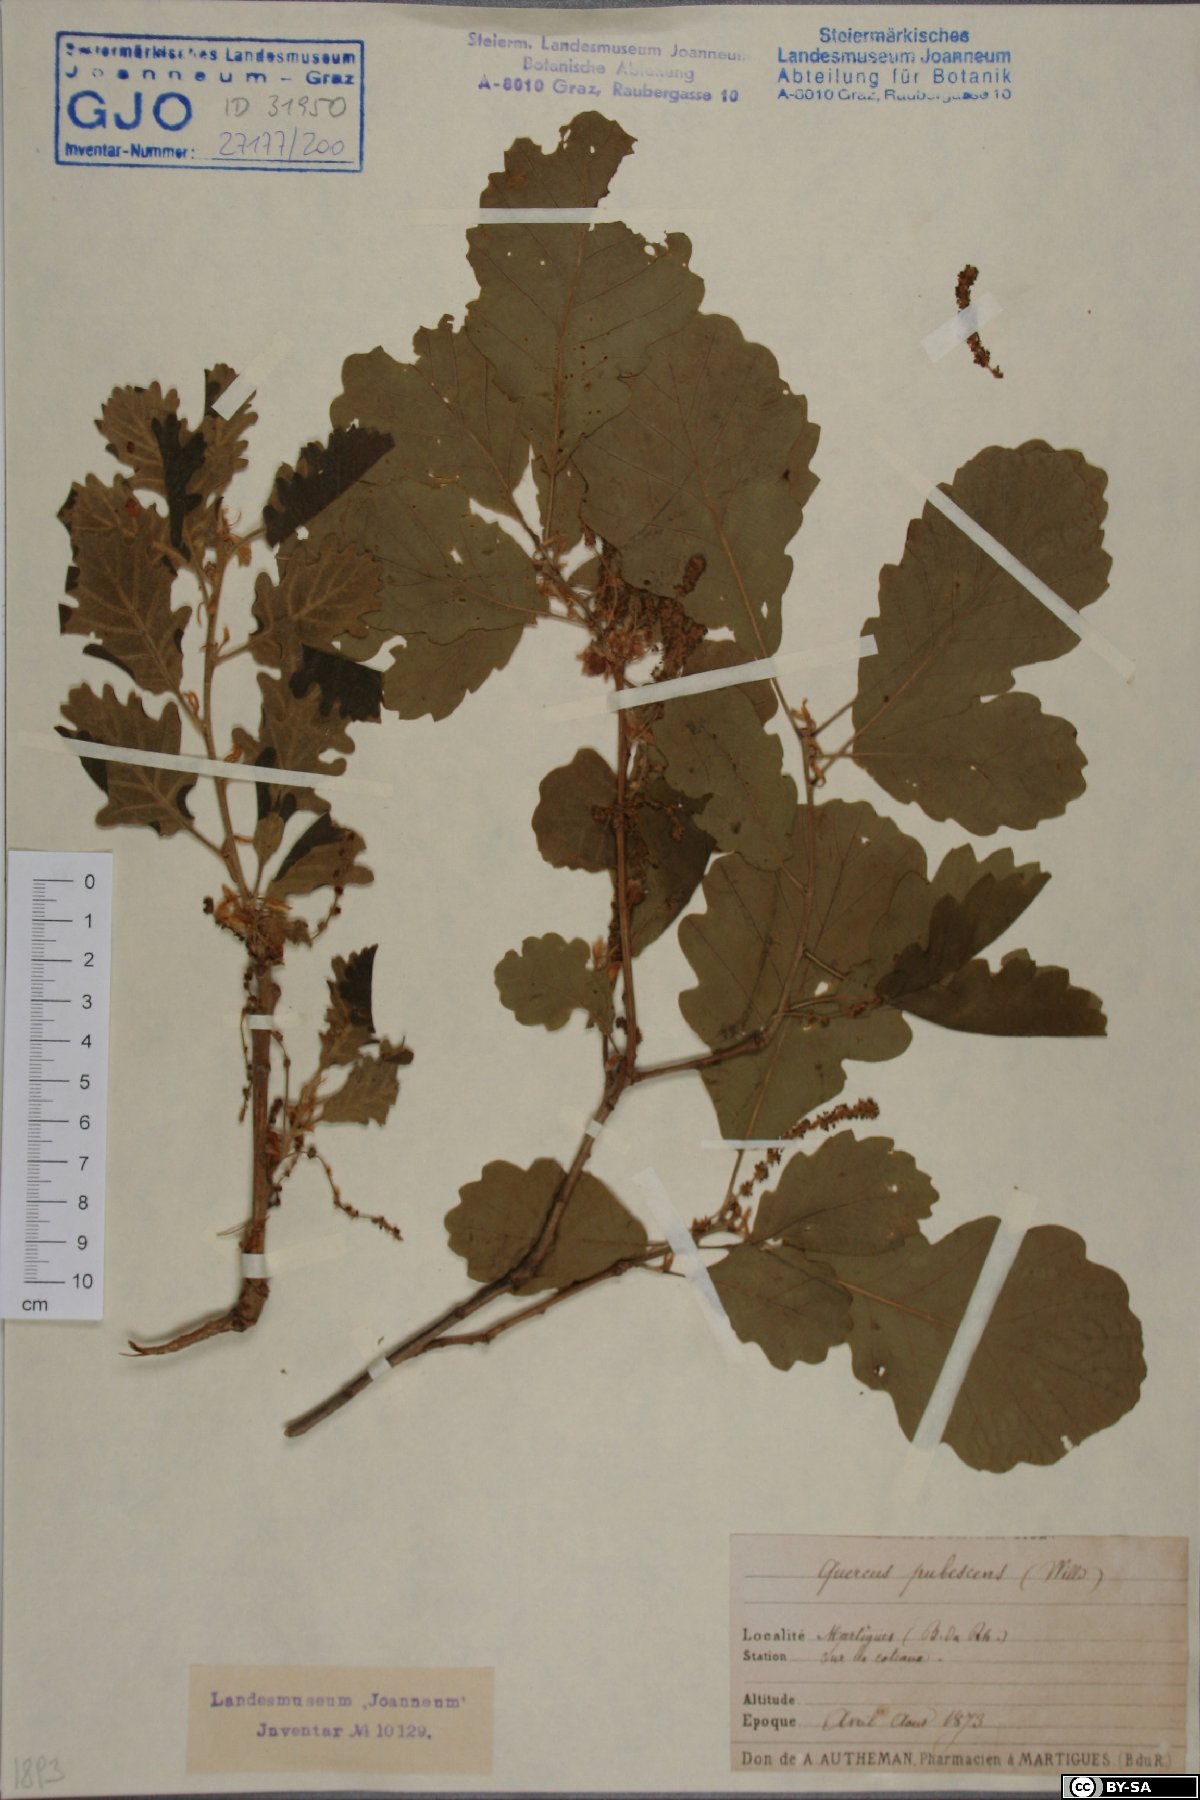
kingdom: Plantae
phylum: Tracheophyta
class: Magnoliopsida
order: Fagales
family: Fagaceae
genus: Quercus
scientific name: Quercus pubescens
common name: Downy oak
